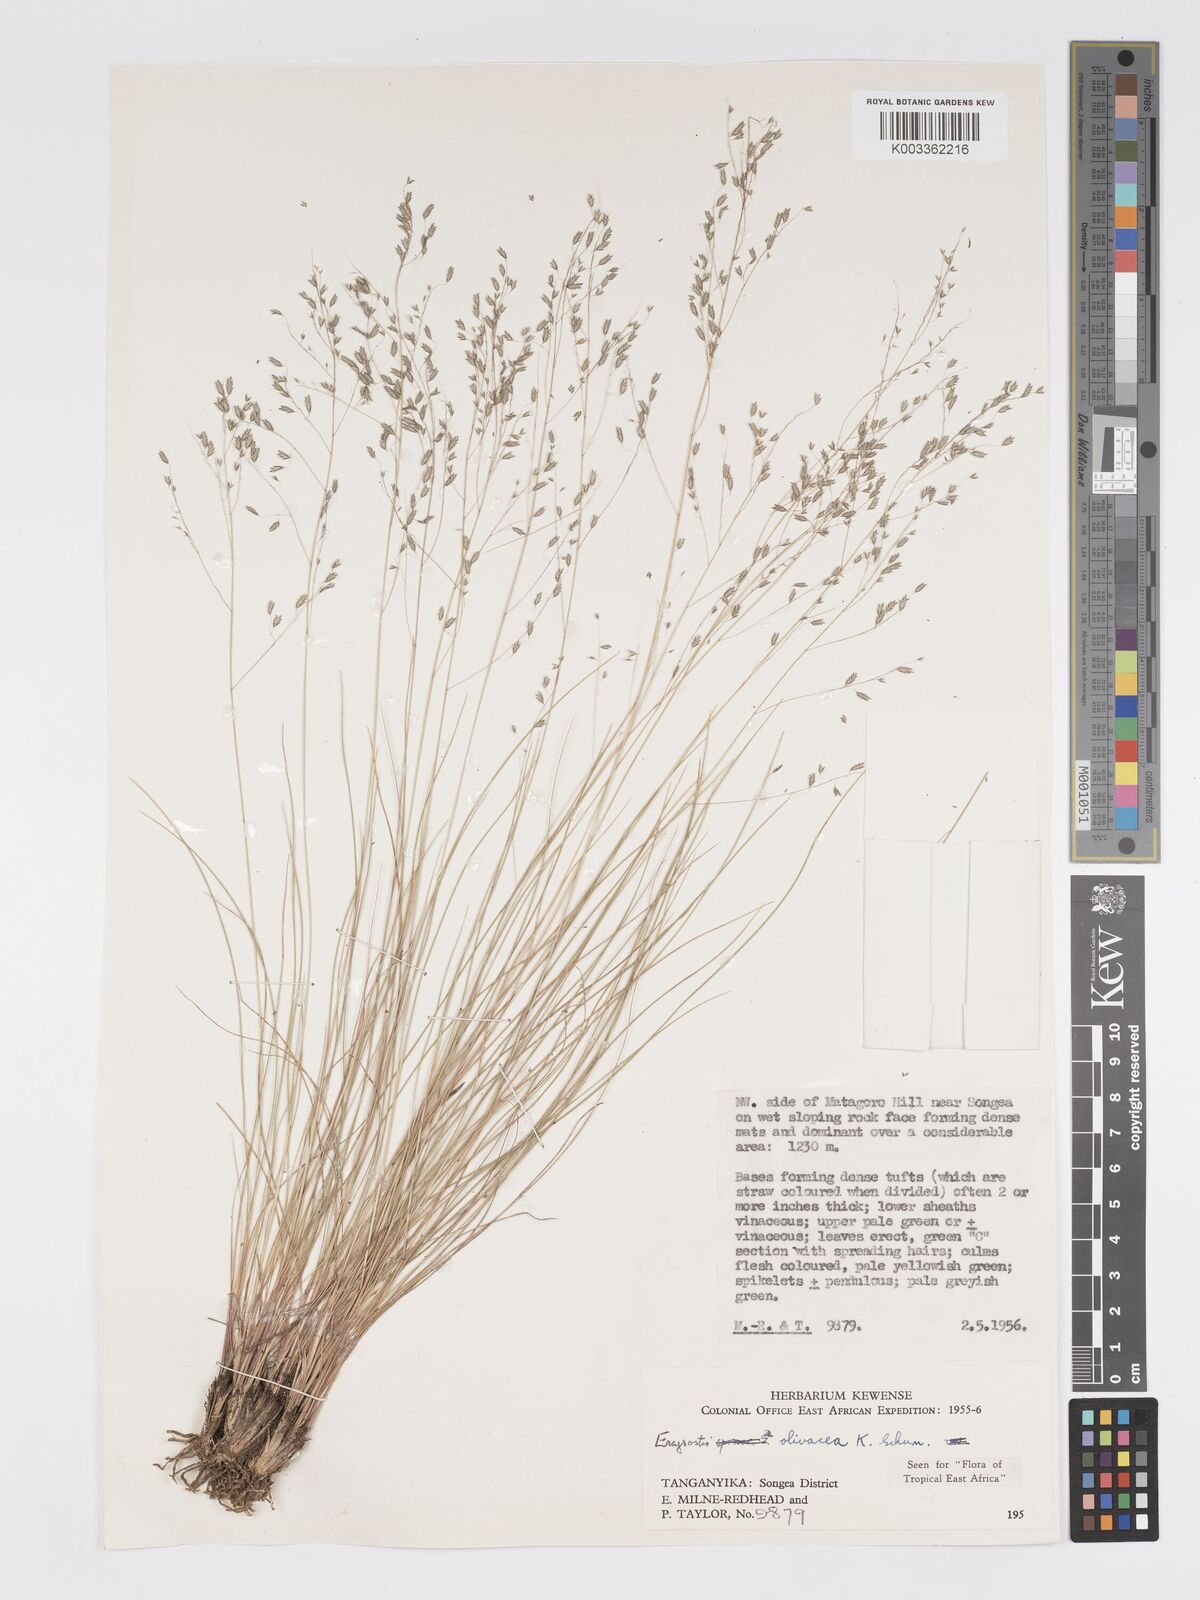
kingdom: Plantae
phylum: Tracheophyta
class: Liliopsida
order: Poales
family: Poaceae
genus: Eragrostis
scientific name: Eragrostis olivacea
